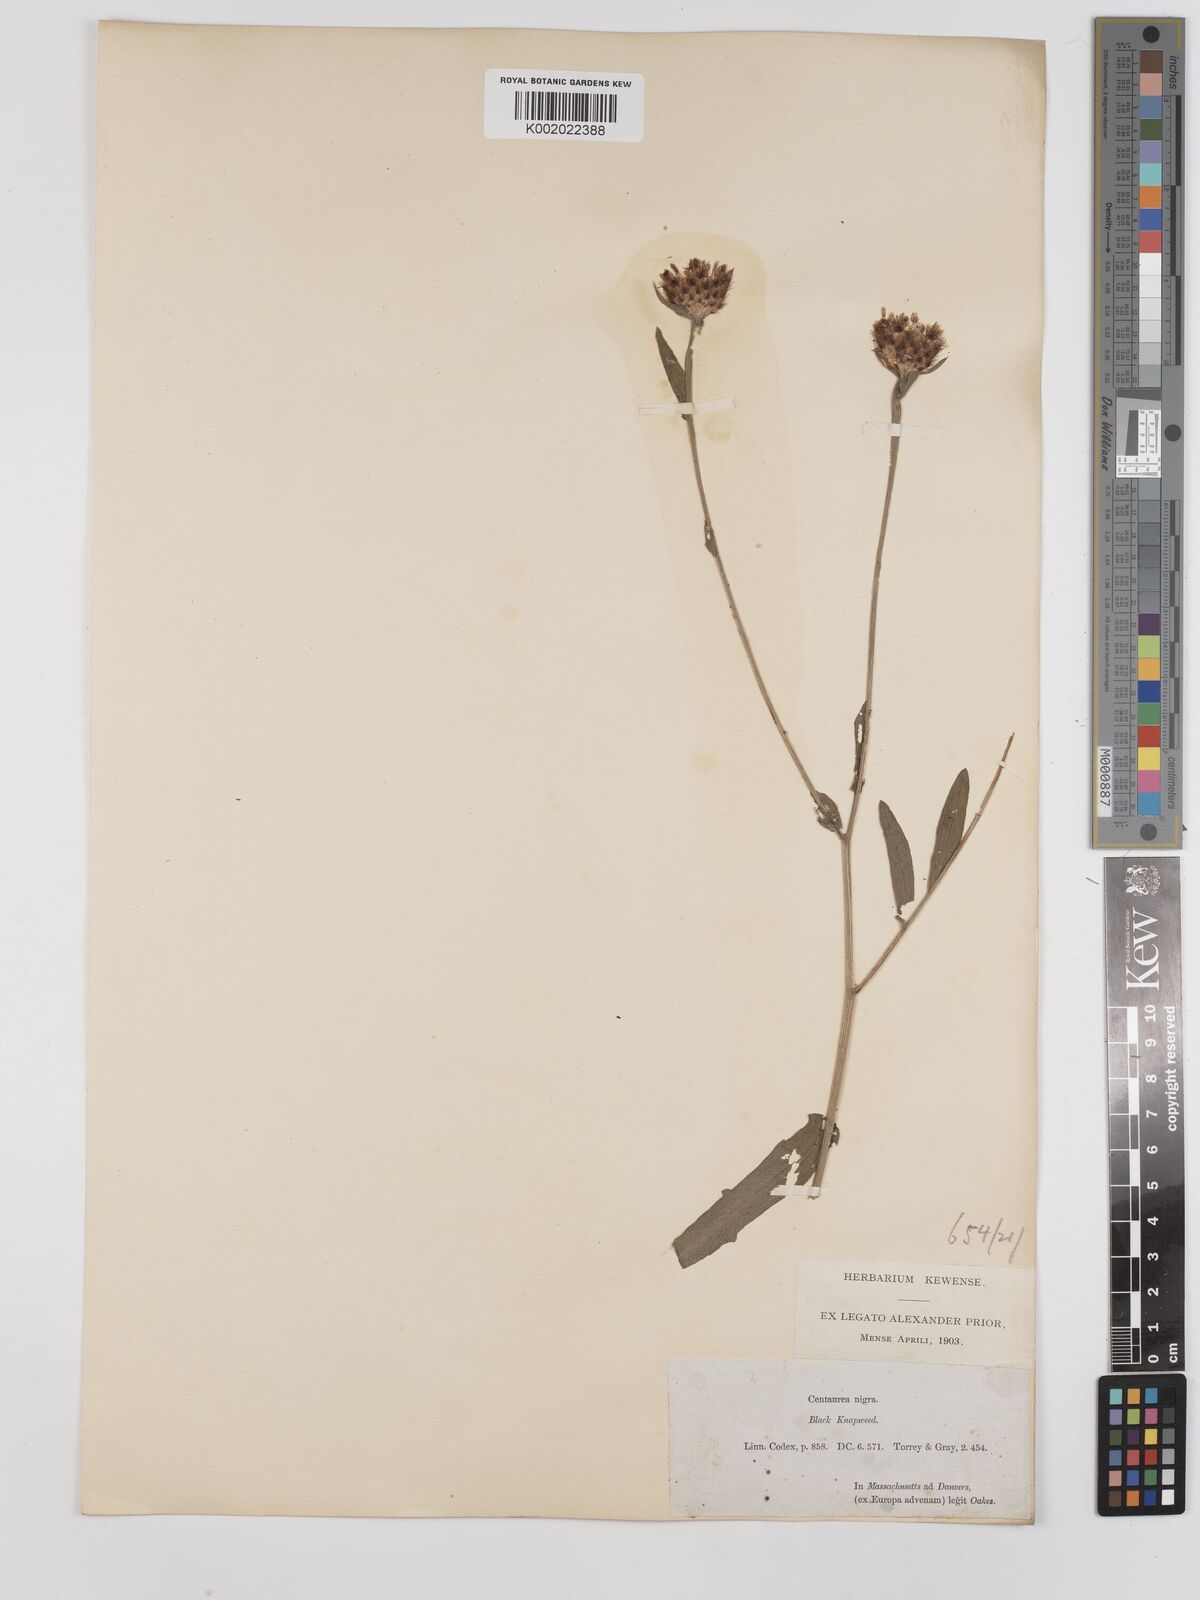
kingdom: Plantae
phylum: Tracheophyta
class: Magnoliopsida
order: Asterales
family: Asteraceae
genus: Centaurea
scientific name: Centaurea nigra
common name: Lesser knapweed
